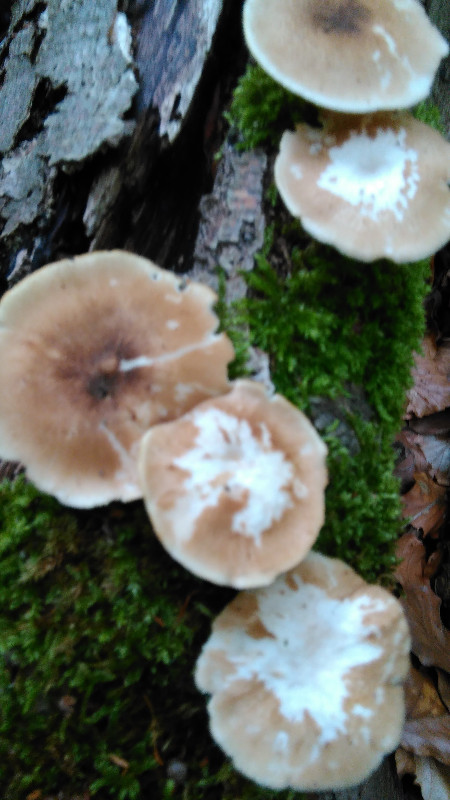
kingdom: Fungi
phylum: Basidiomycota
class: Agaricomycetes
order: Polyporales
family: Polyporaceae
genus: Lentinus
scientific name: Lentinus substrictus
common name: forårs-stilkporesvamp
